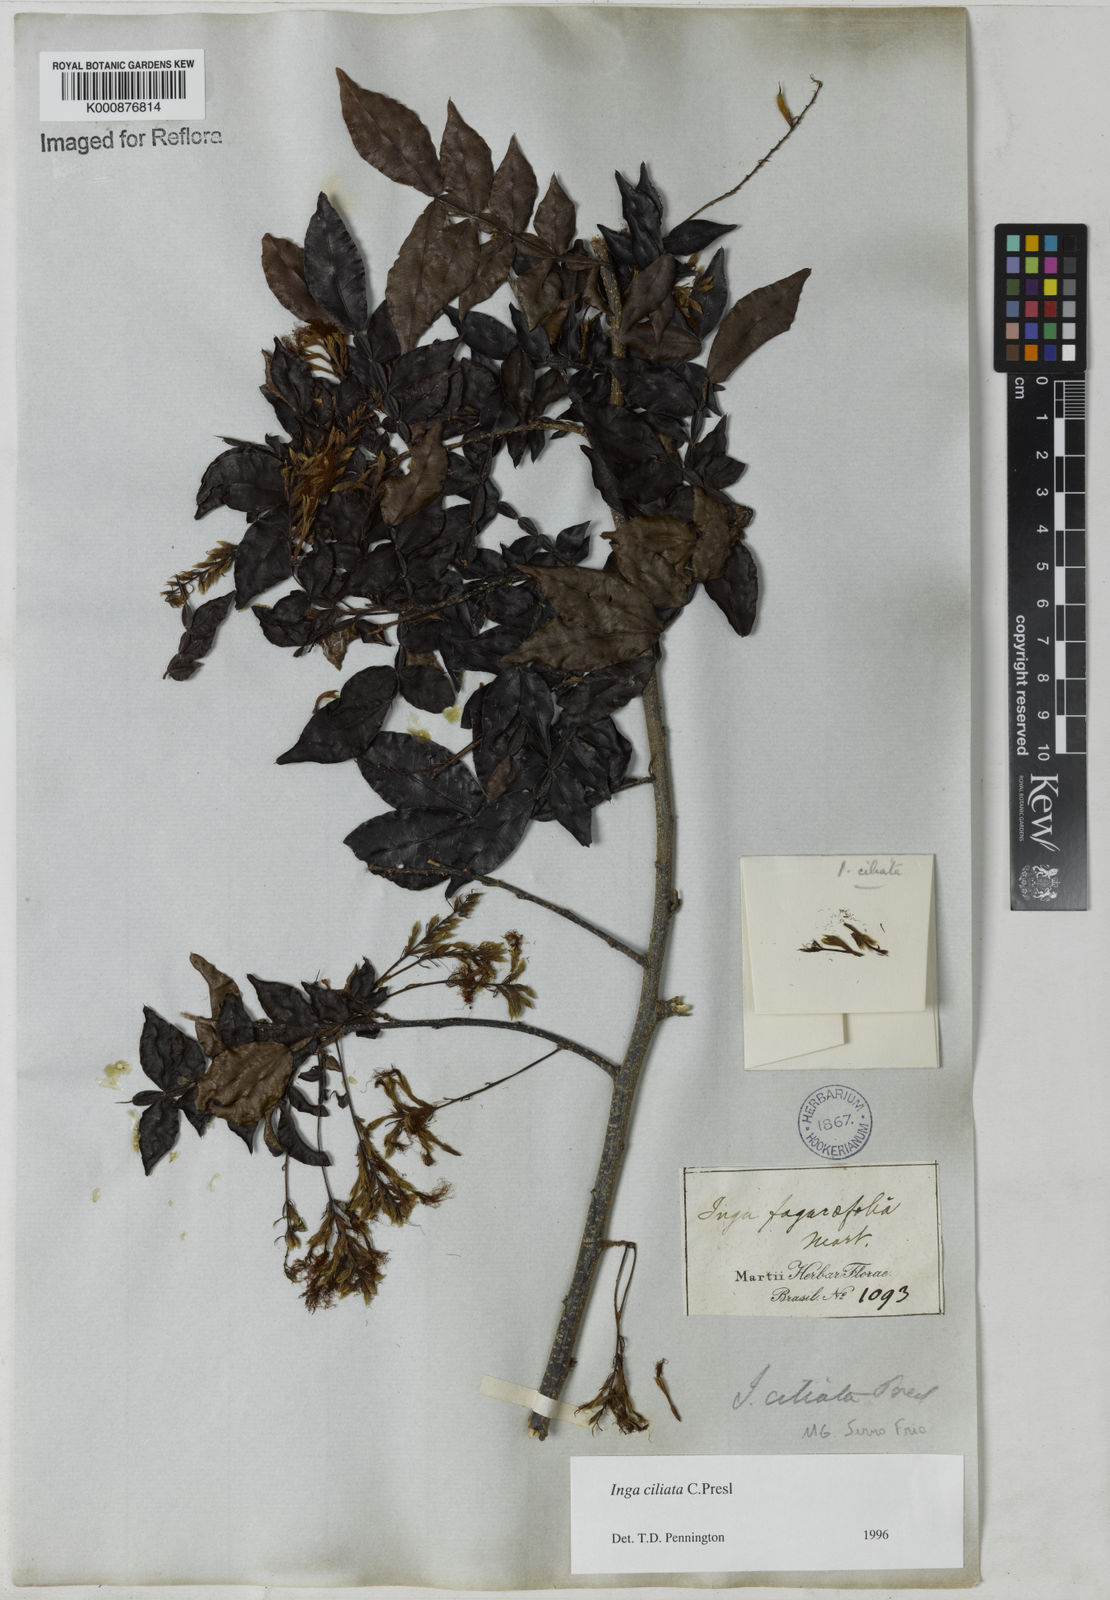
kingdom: Plantae
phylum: Tracheophyta
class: Magnoliopsida
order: Fabales
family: Fabaceae
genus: Inga
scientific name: Inga ciliata
